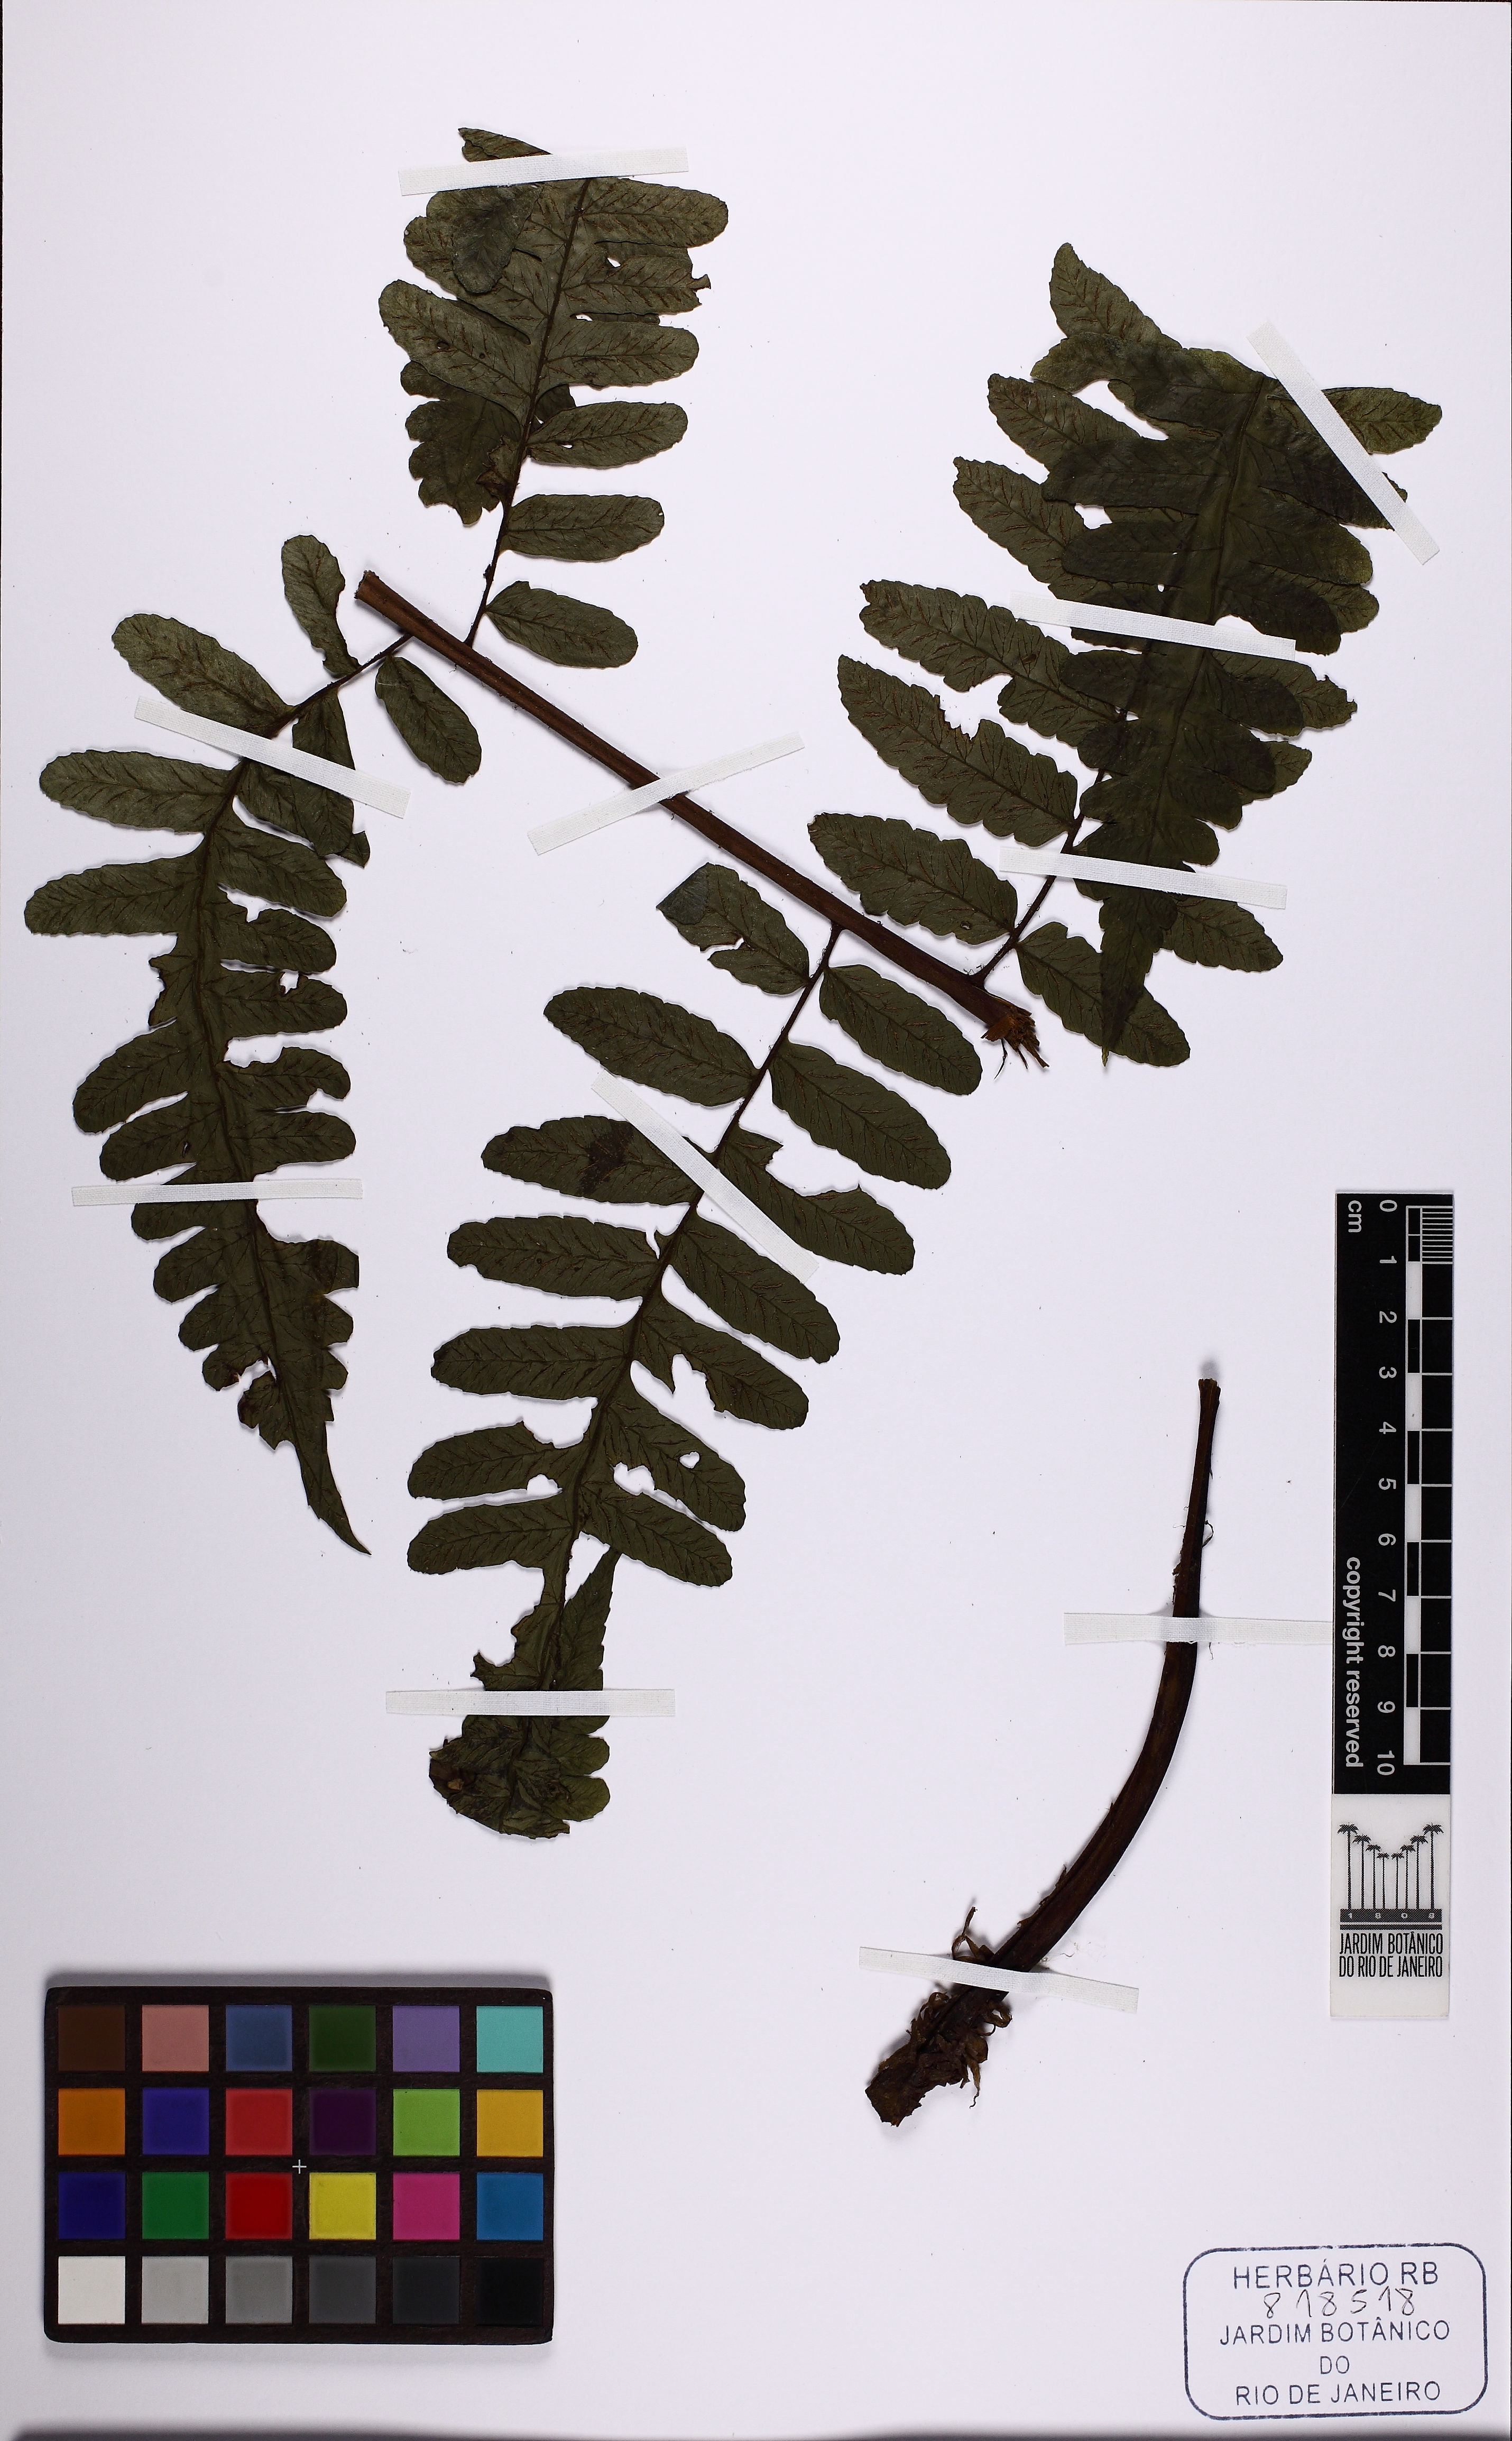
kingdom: Plantae
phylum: Tracheophyta
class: Polypodiopsida
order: Polypodiales
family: Athyriaceae
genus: Diplazium
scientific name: Diplazium ambiguum
